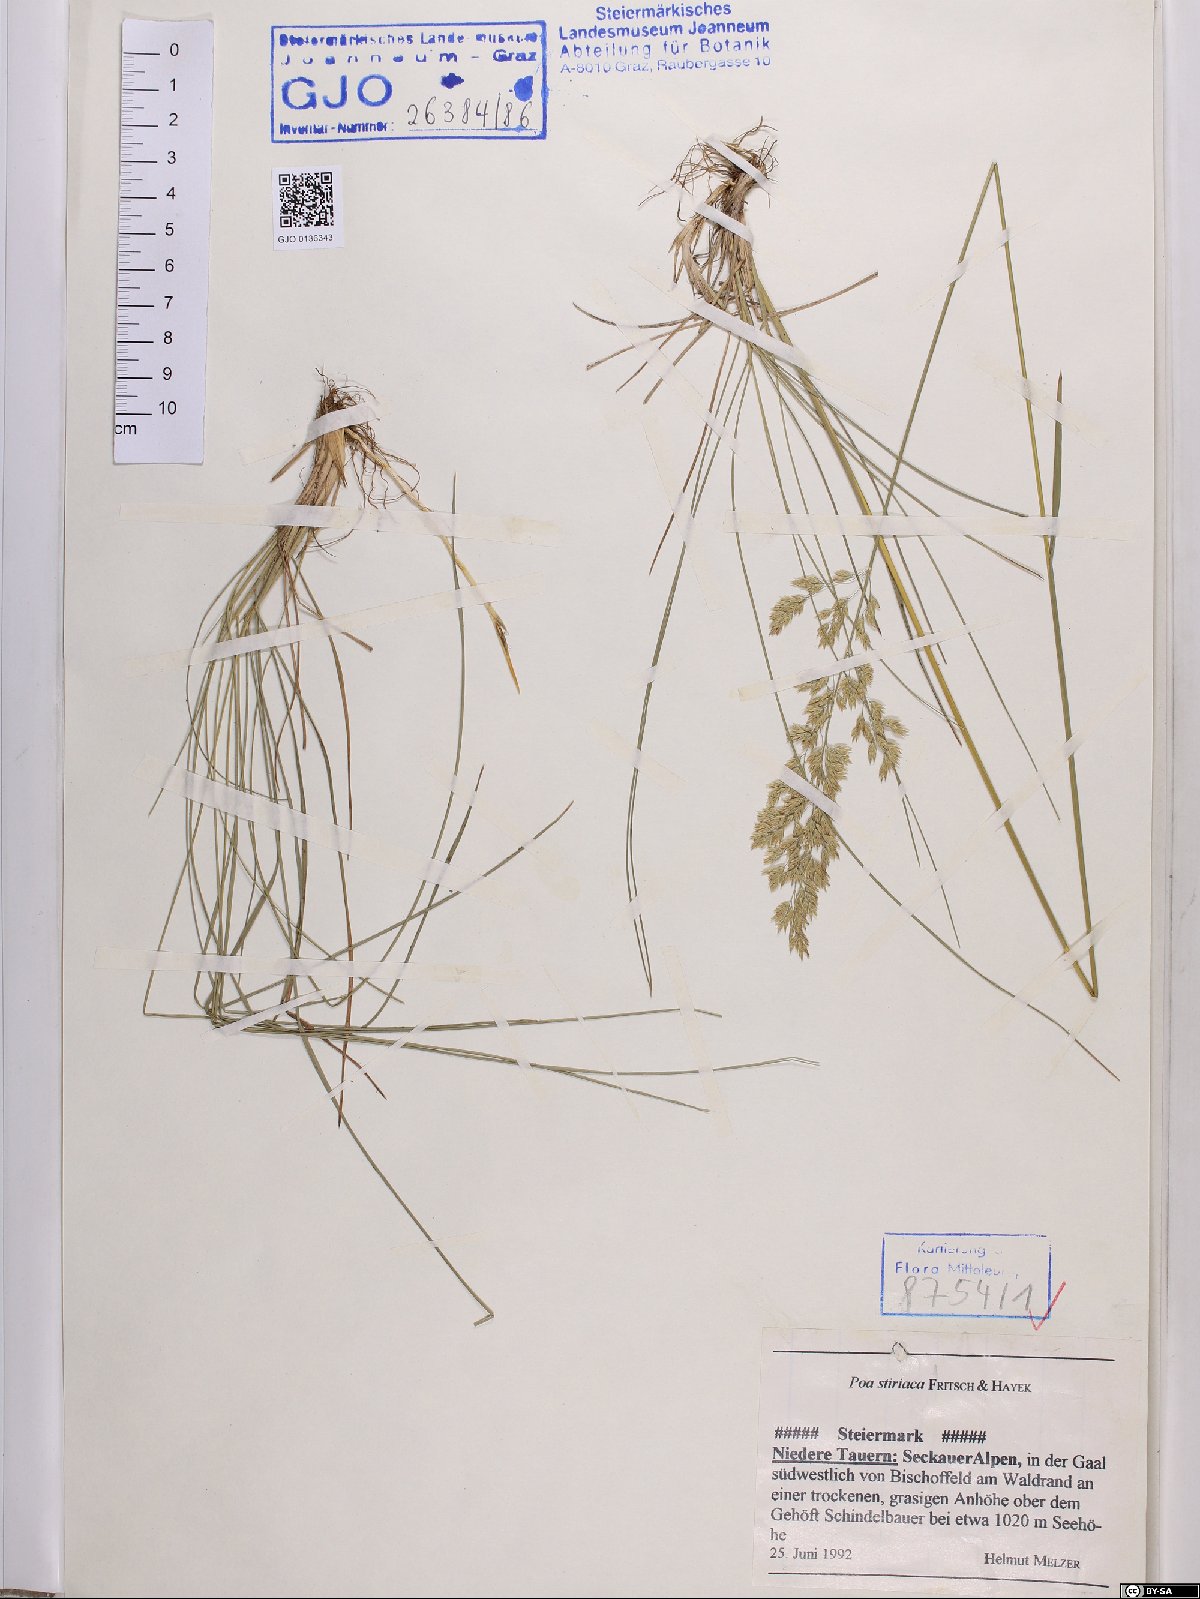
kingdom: Plantae
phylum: Tracheophyta
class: Liliopsida
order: Poales
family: Poaceae
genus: Poa
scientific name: Poa stiriaca
